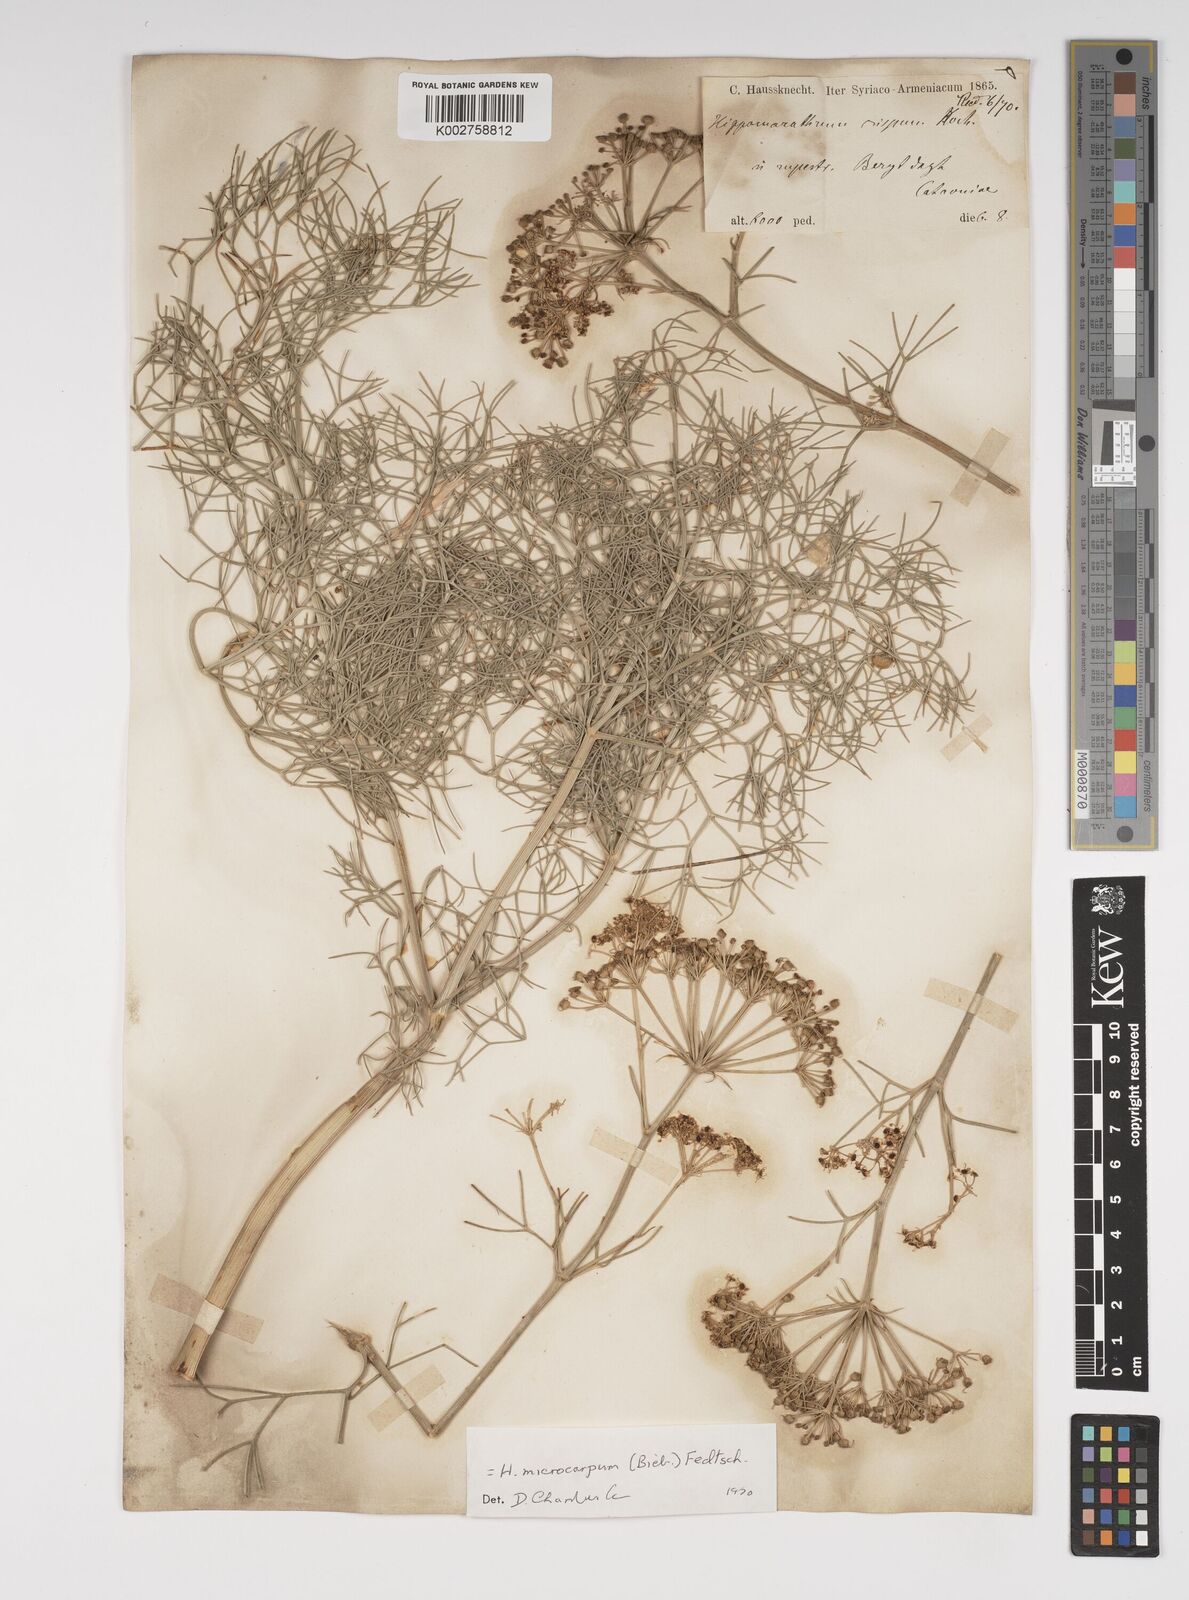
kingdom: Plantae
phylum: Tracheophyta
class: Magnoliopsida
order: Apiales
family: Apiaceae
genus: Bilacunaria
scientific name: Bilacunaria microcarpa
